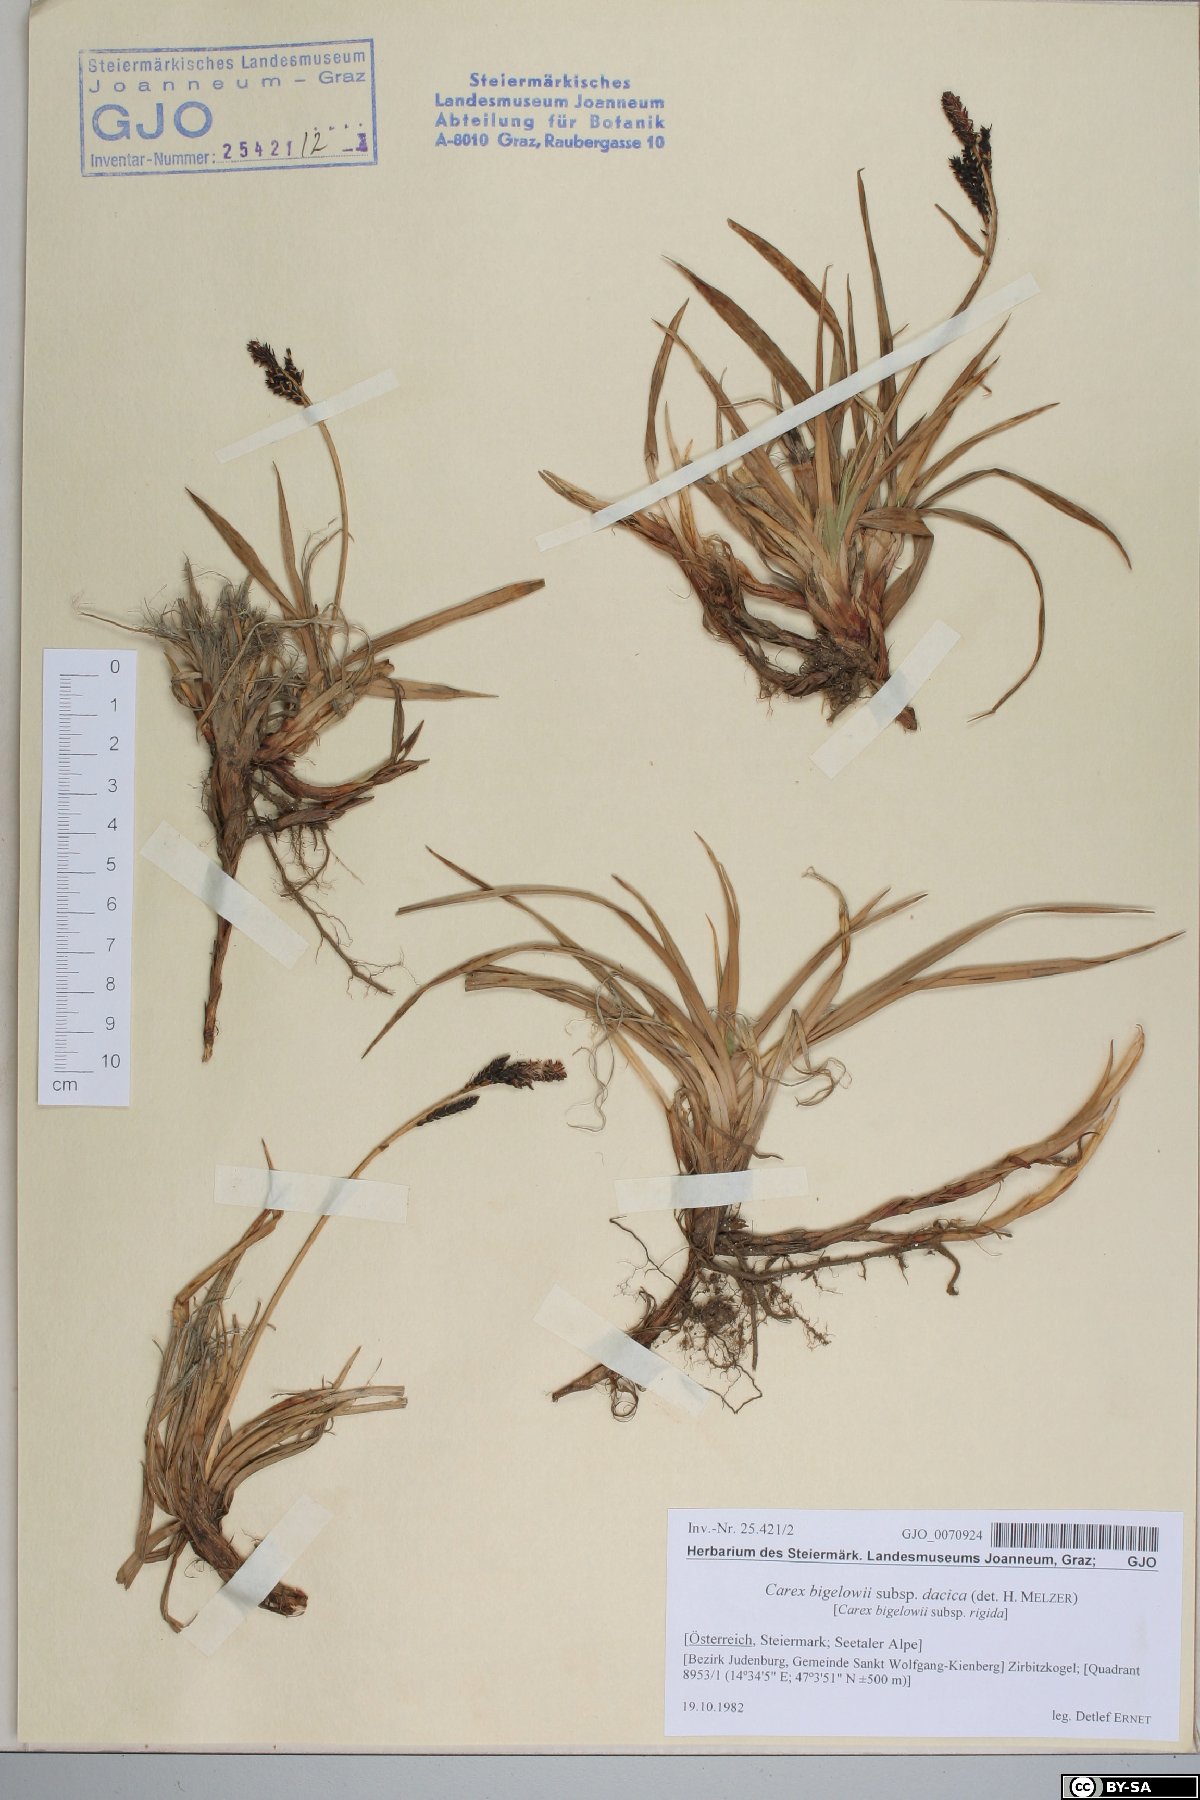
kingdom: Plantae
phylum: Tracheophyta
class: Liliopsida
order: Poales
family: Cyperaceae
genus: Carex
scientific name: Carex dacica
